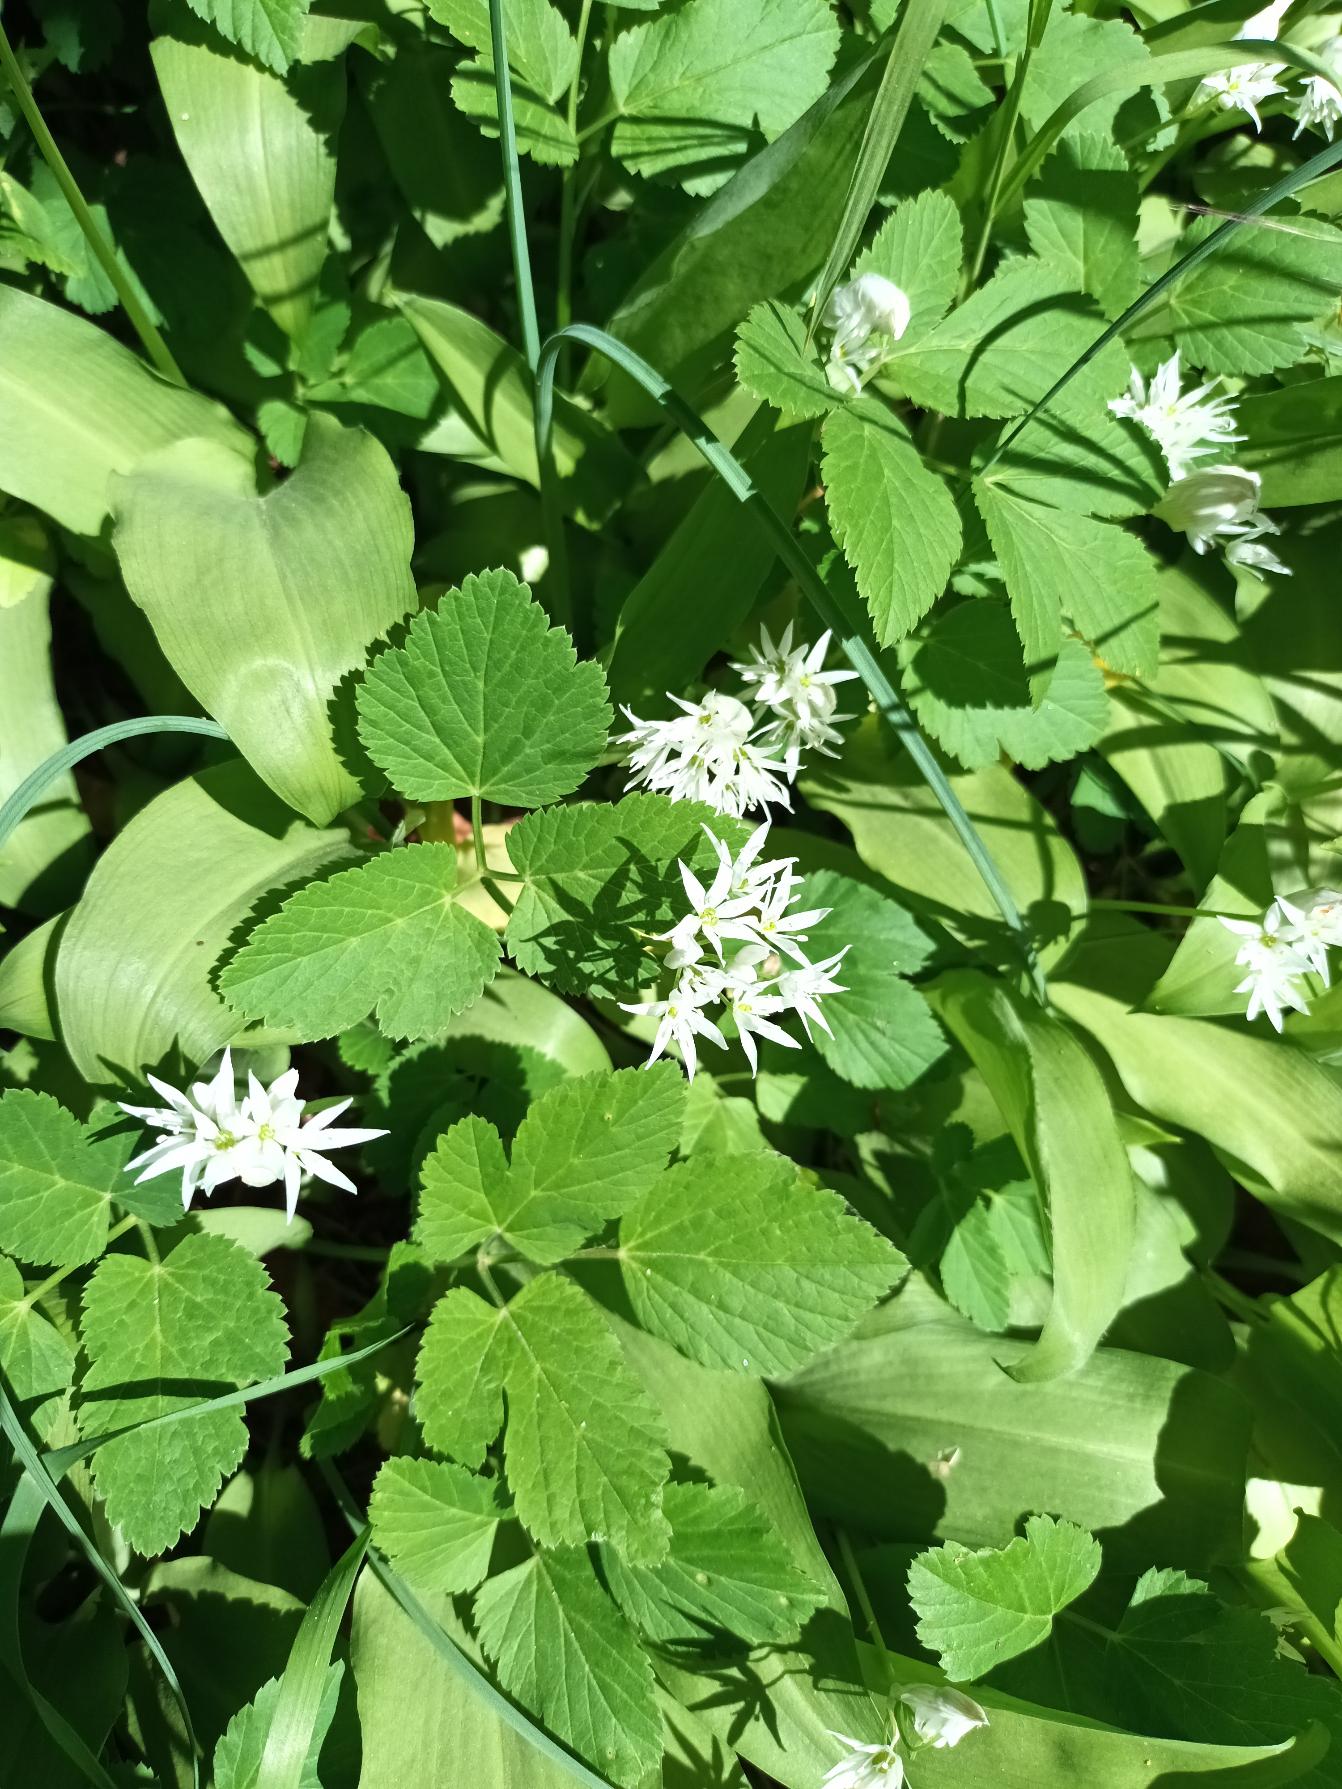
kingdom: Plantae
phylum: Tracheophyta
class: Liliopsida
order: Asparagales
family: Amaryllidaceae
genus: Allium
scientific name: Allium ursinum
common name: Rams-løg
